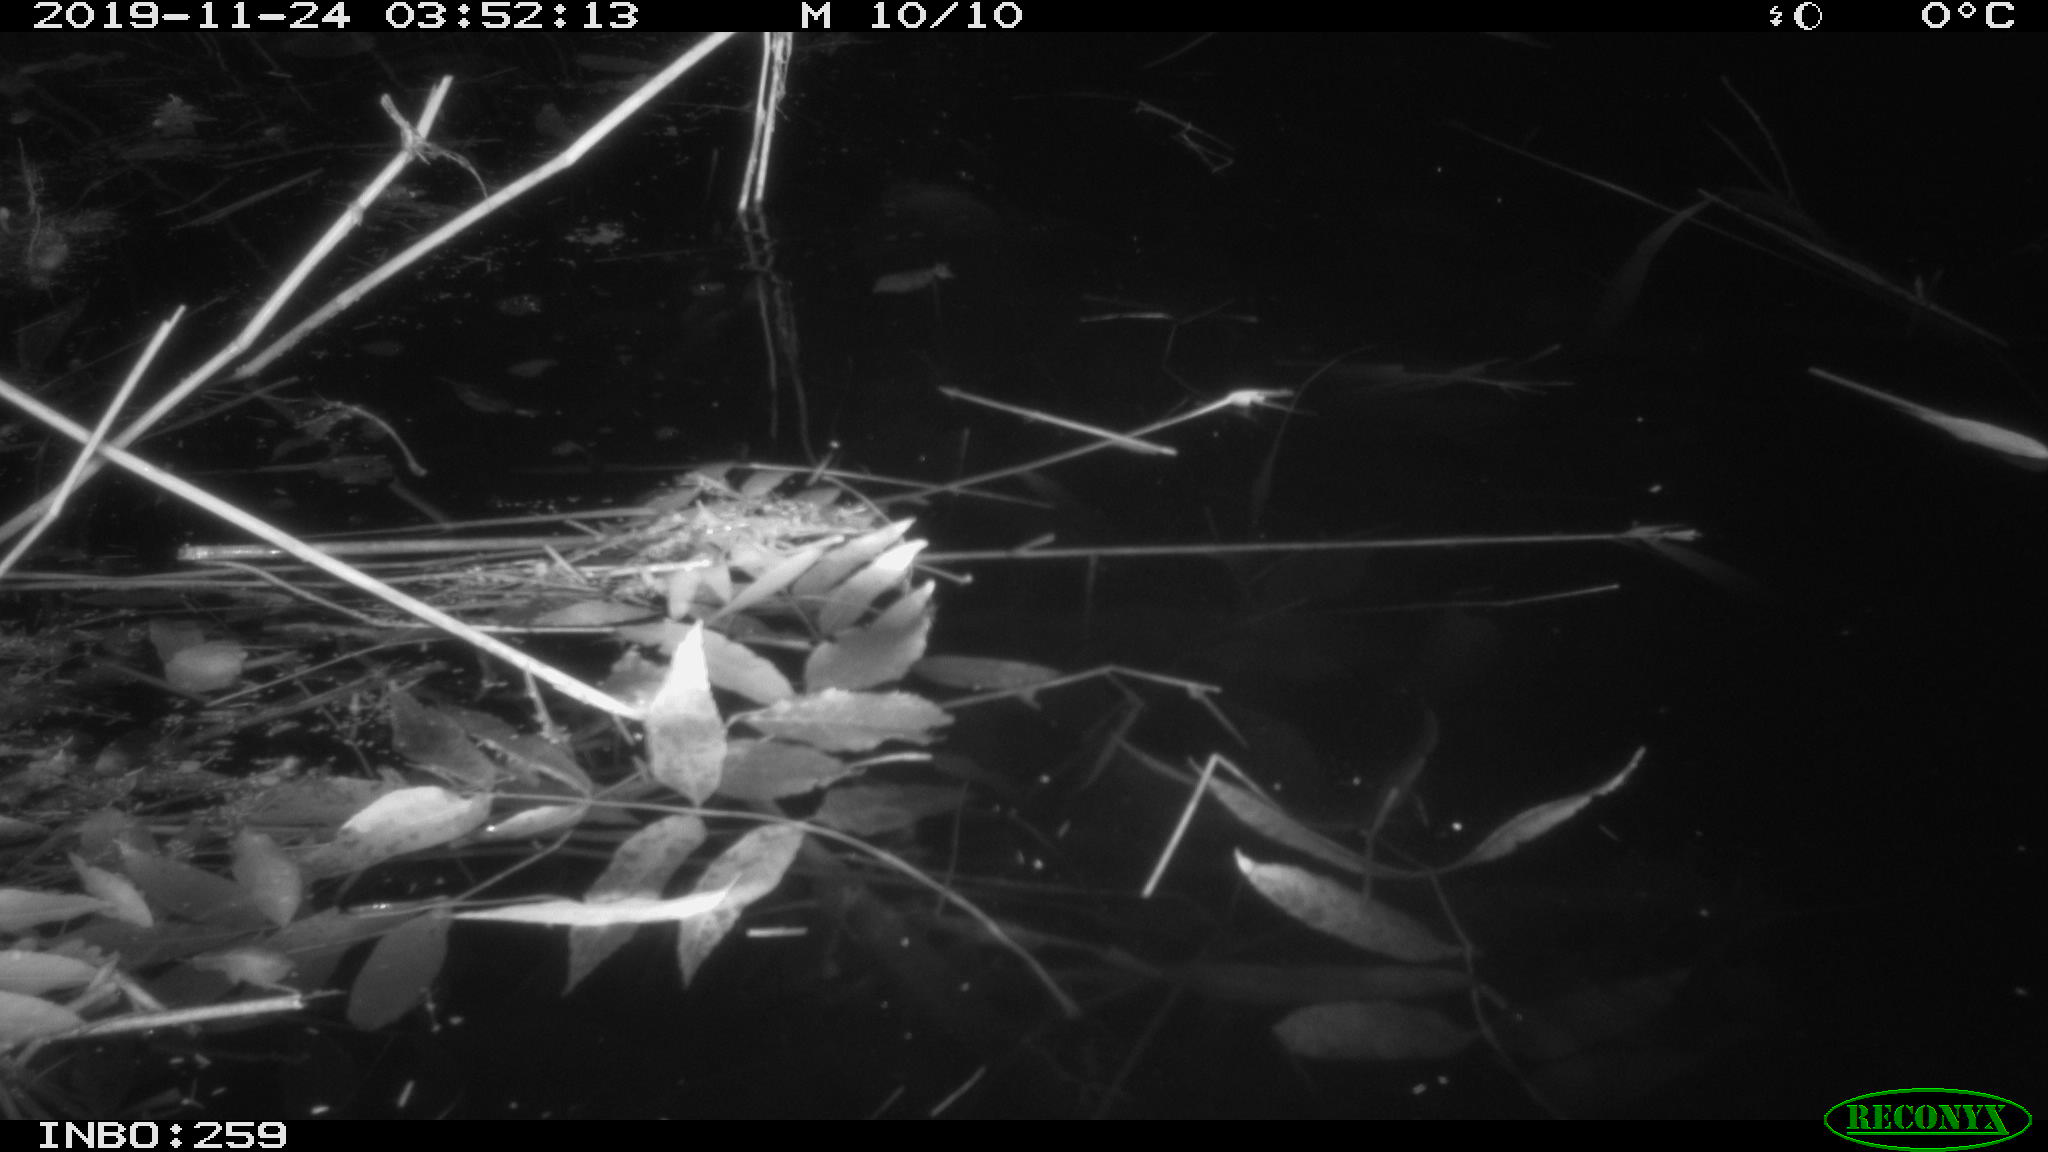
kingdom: Animalia
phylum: Chordata
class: Mammalia
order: Rodentia
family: Cricetidae
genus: Ondatra
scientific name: Ondatra zibethicus
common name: Muskrat
